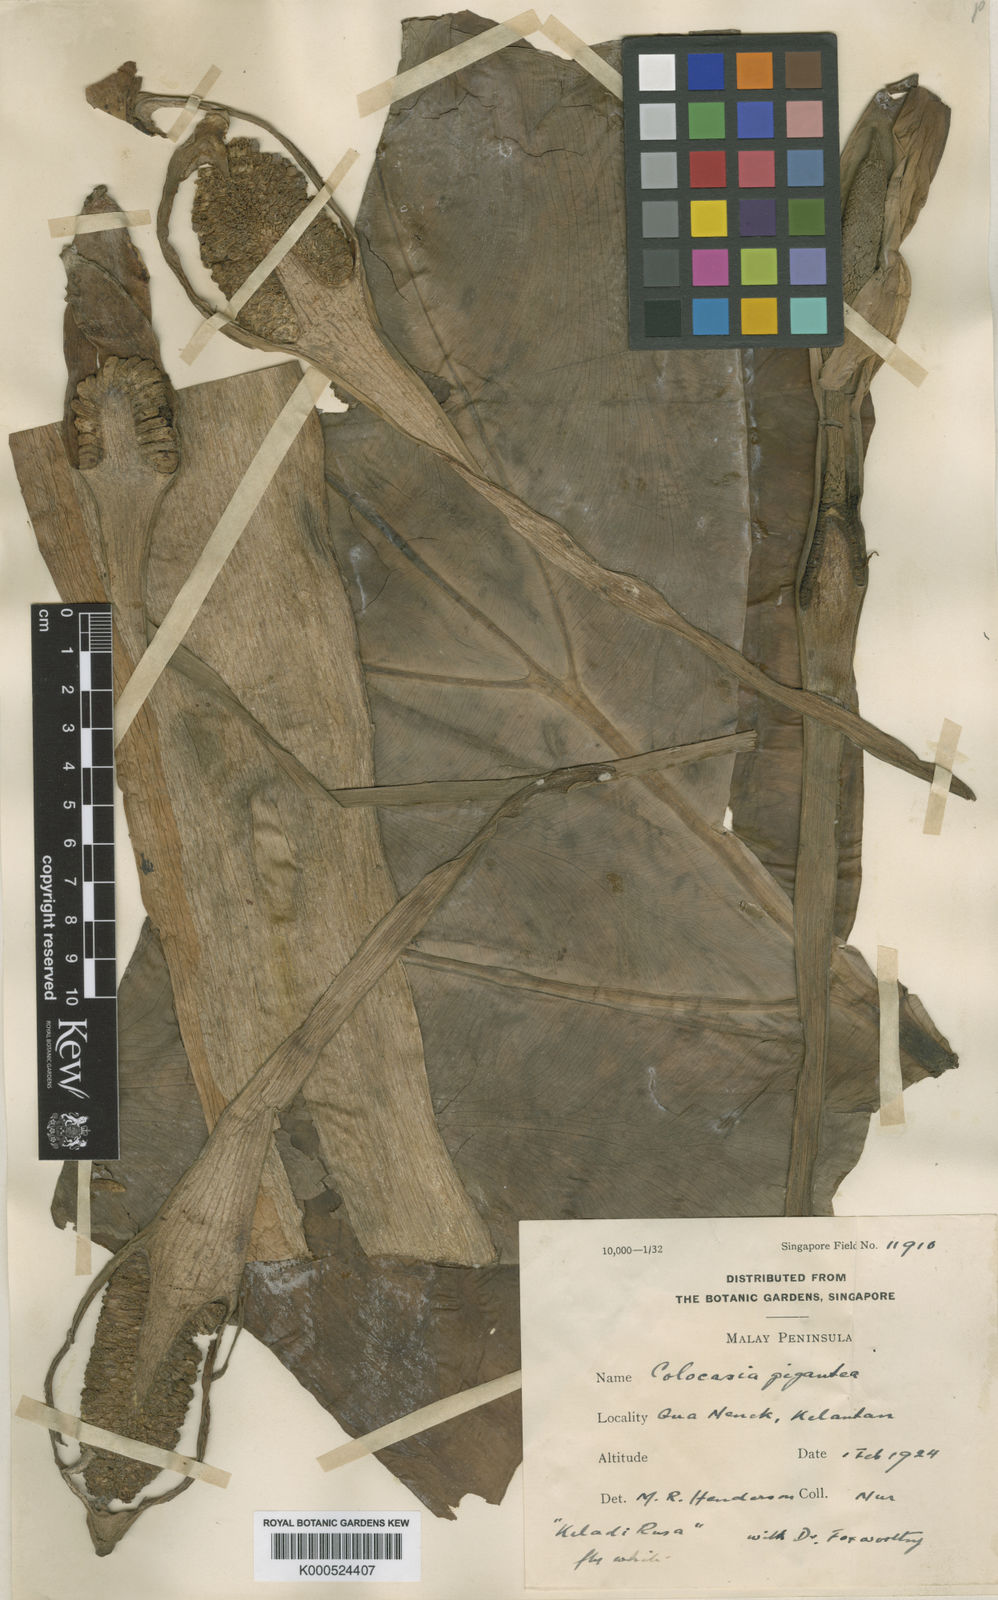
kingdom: Plantae
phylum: Tracheophyta
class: Liliopsida
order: Alismatales
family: Araceae
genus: Leucocasia
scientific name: Leucocasia gigantea
